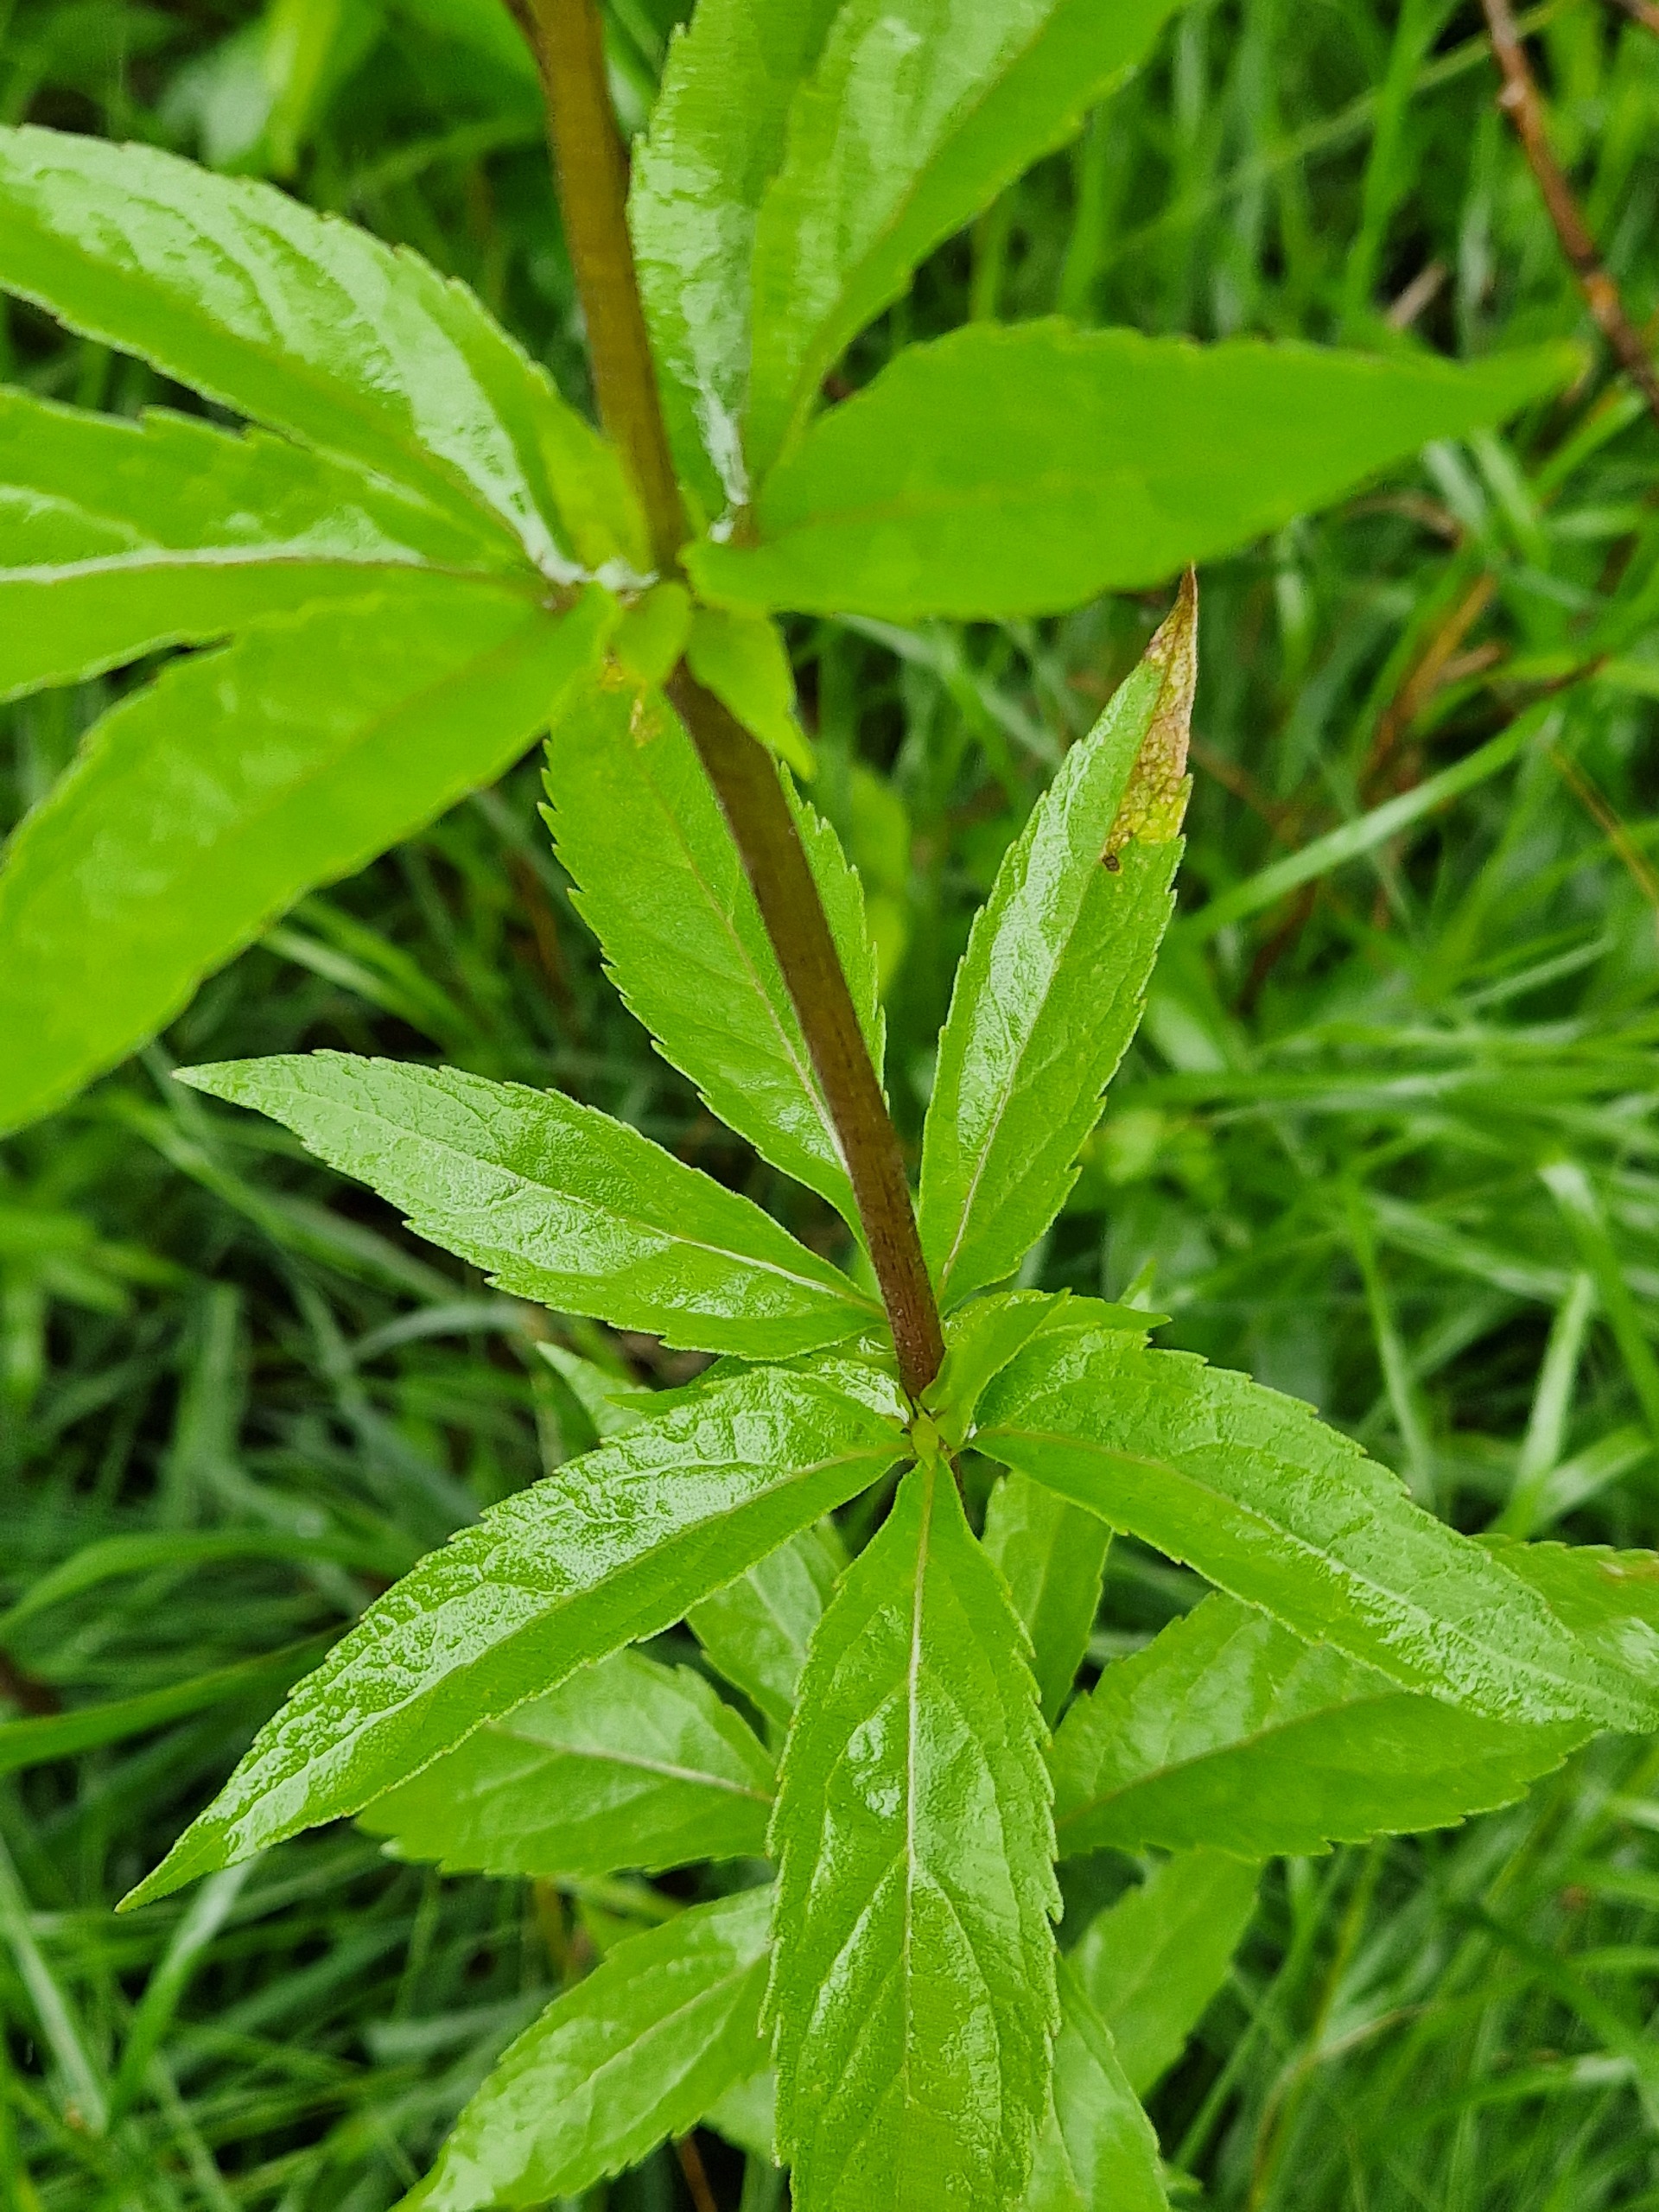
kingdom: Plantae
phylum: Tracheophyta
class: Magnoliopsida
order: Asterales
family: Asteraceae
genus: Eupatorium
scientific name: Eupatorium cannabinum
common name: Hjortetrøst
